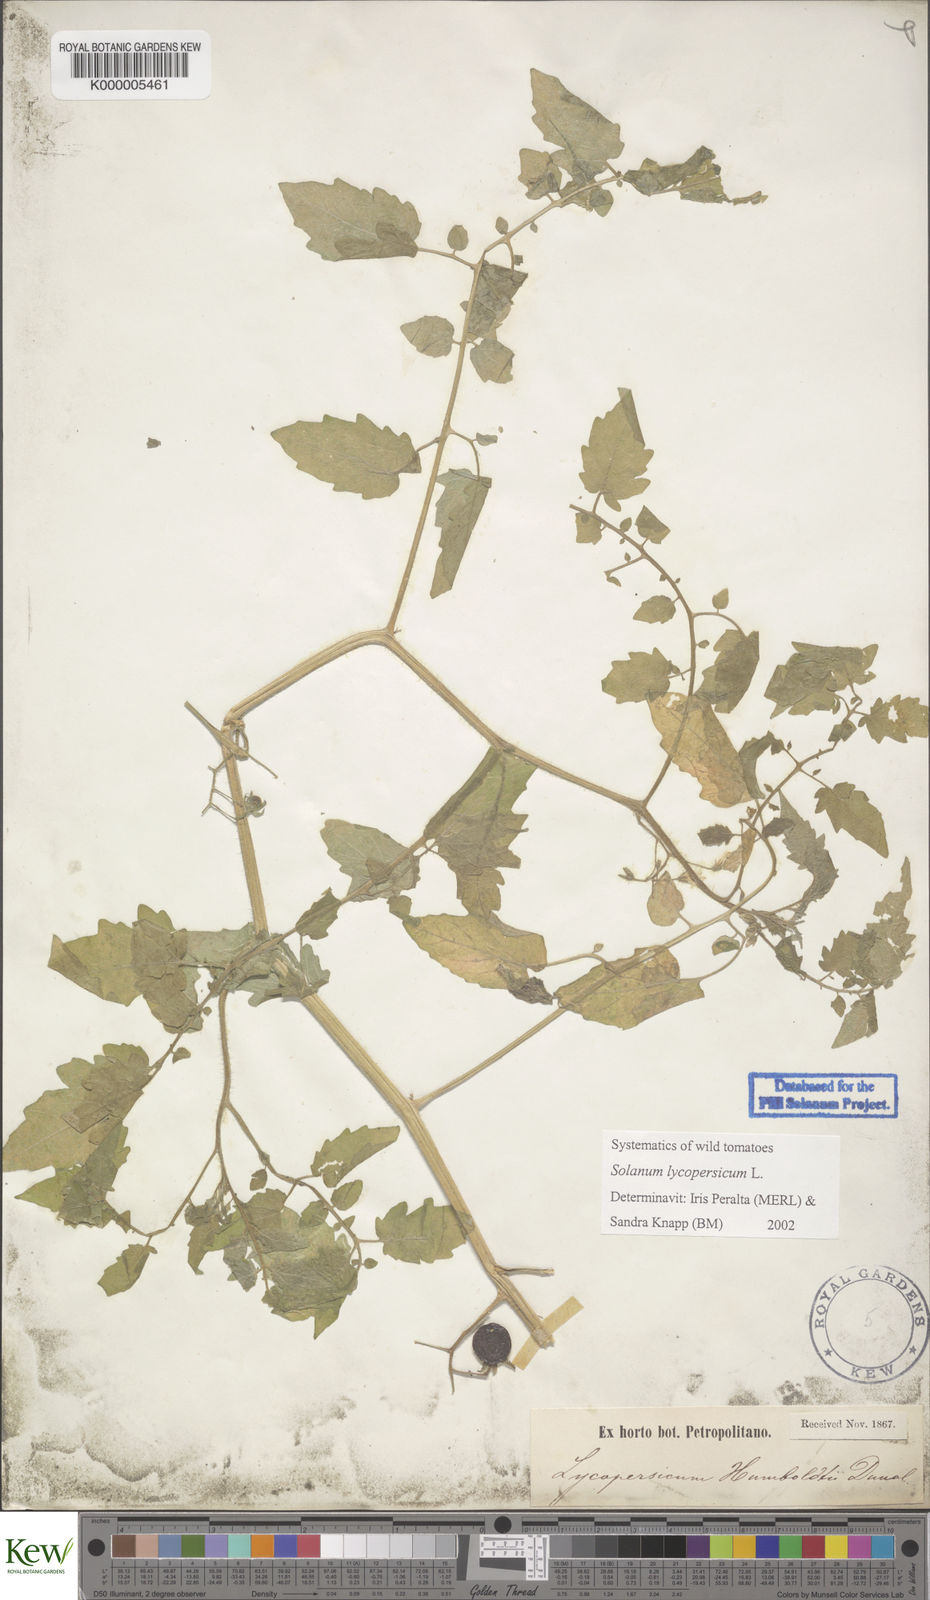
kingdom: Plantae
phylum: Tracheophyta
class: Magnoliopsida
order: Solanales
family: Solanaceae
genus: Solanum
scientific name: Solanum lycopersicum
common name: Garden tomato
